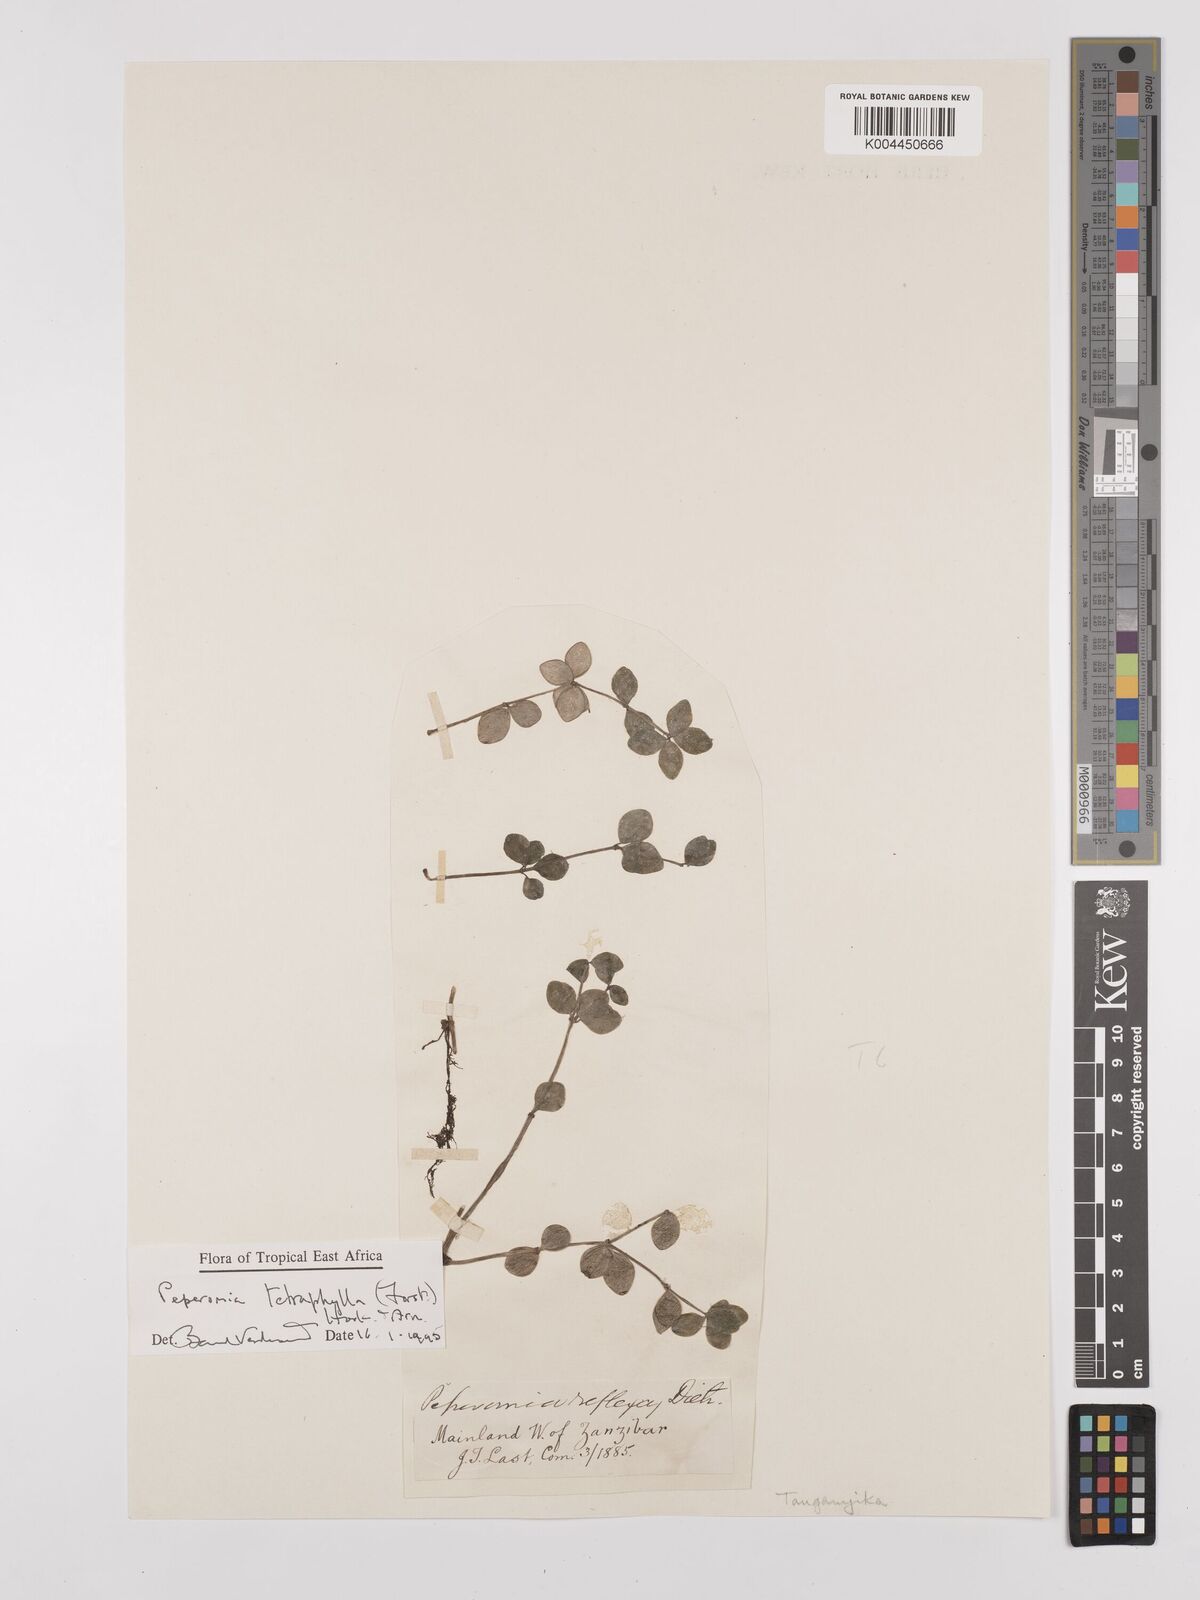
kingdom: Plantae
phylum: Tracheophyta
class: Magnoliopsida
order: Piperales
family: Piperaceae
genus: Peperomia
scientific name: Peperomia tetraphylla
